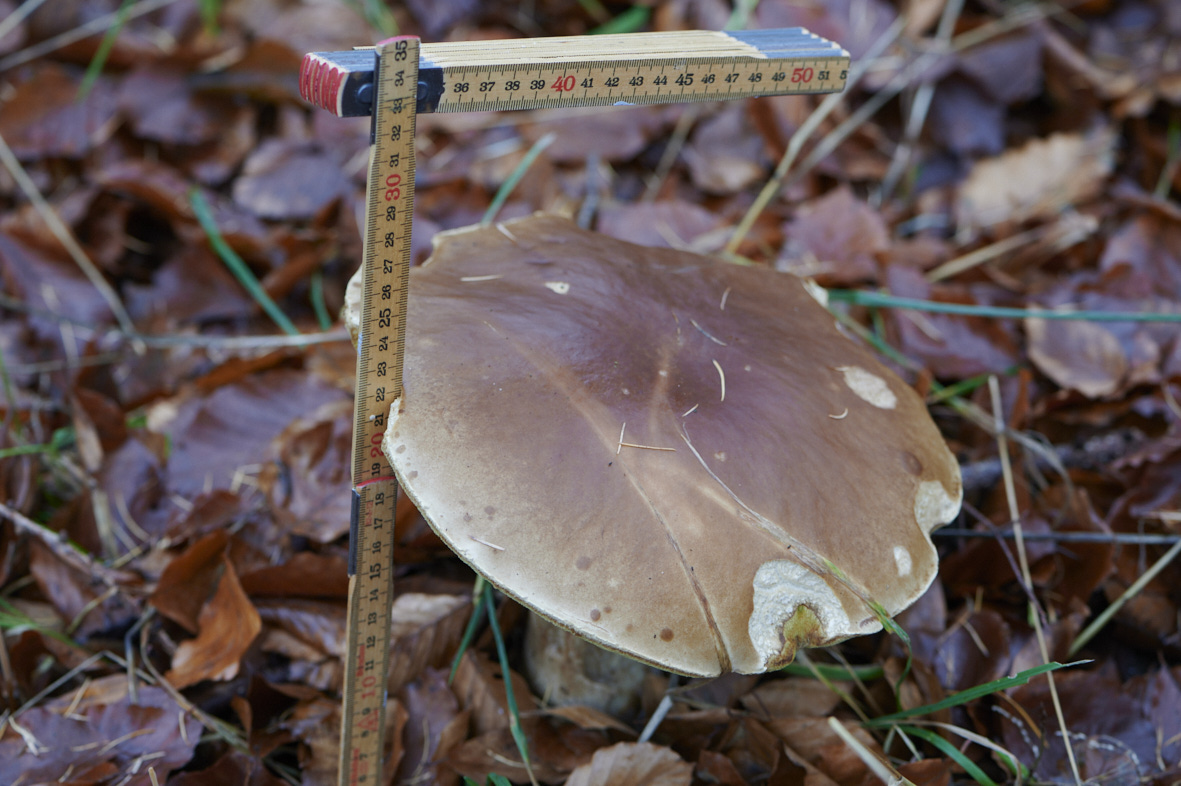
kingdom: Fungi
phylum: Basidiomycota
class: Agaricomycetes
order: Boletales
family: Boletaceae
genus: Boletus
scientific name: Boletus edulis
